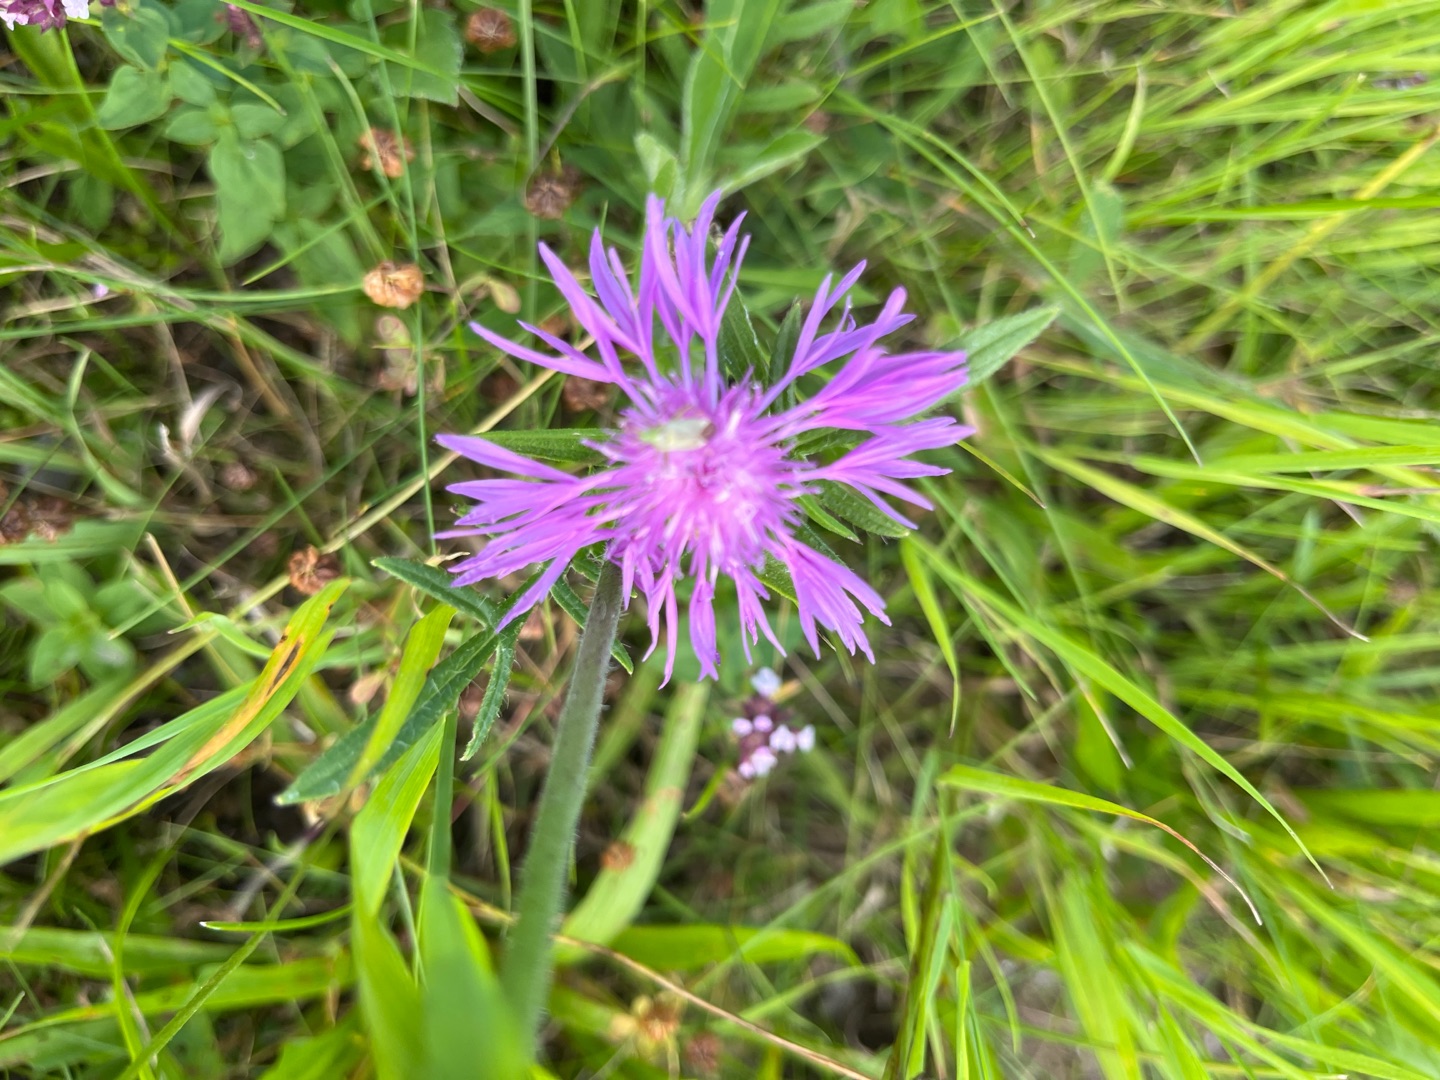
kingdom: Plantae
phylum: Tracheophyta
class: Magnoliopsida
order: Asterales
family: Asteraceae
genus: Centaurea
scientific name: Centaurea
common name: Knopurtslægten
